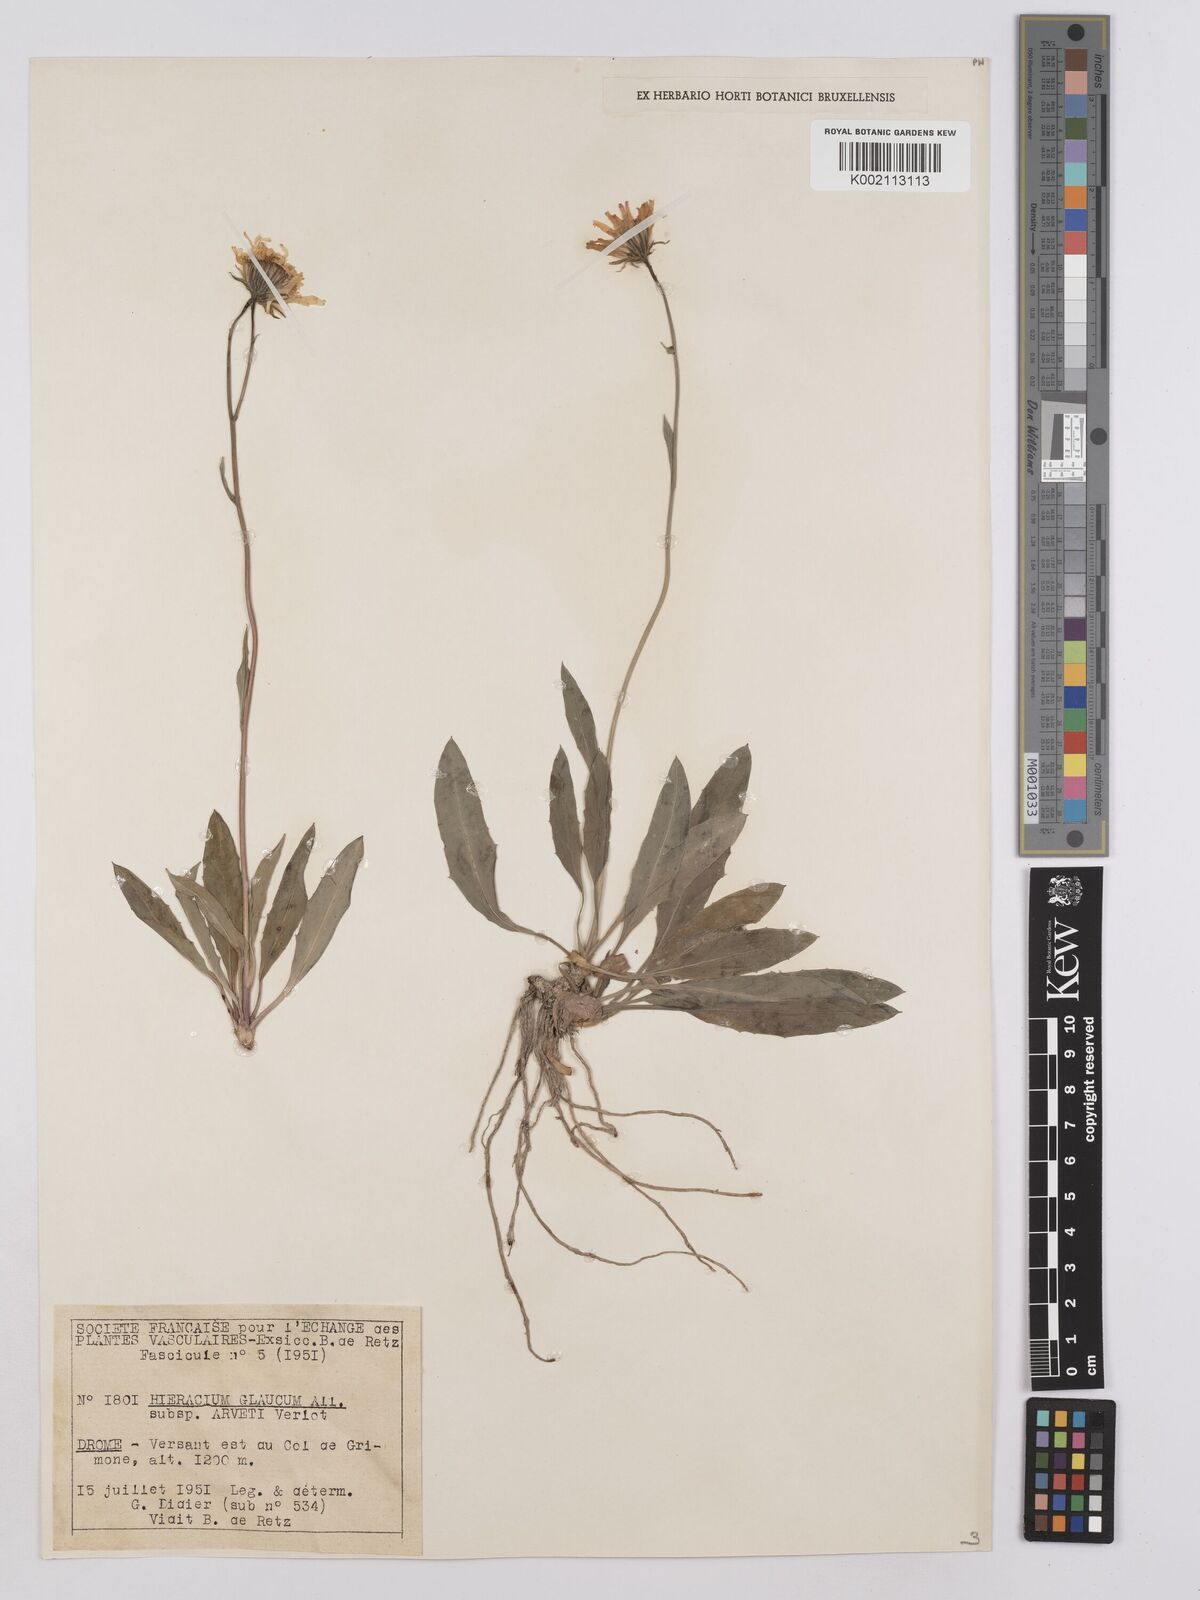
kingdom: Plantae
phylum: Tracheophyta
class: Magnoliopsida
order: Asterales
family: Asteraceae
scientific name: Asteraceae
